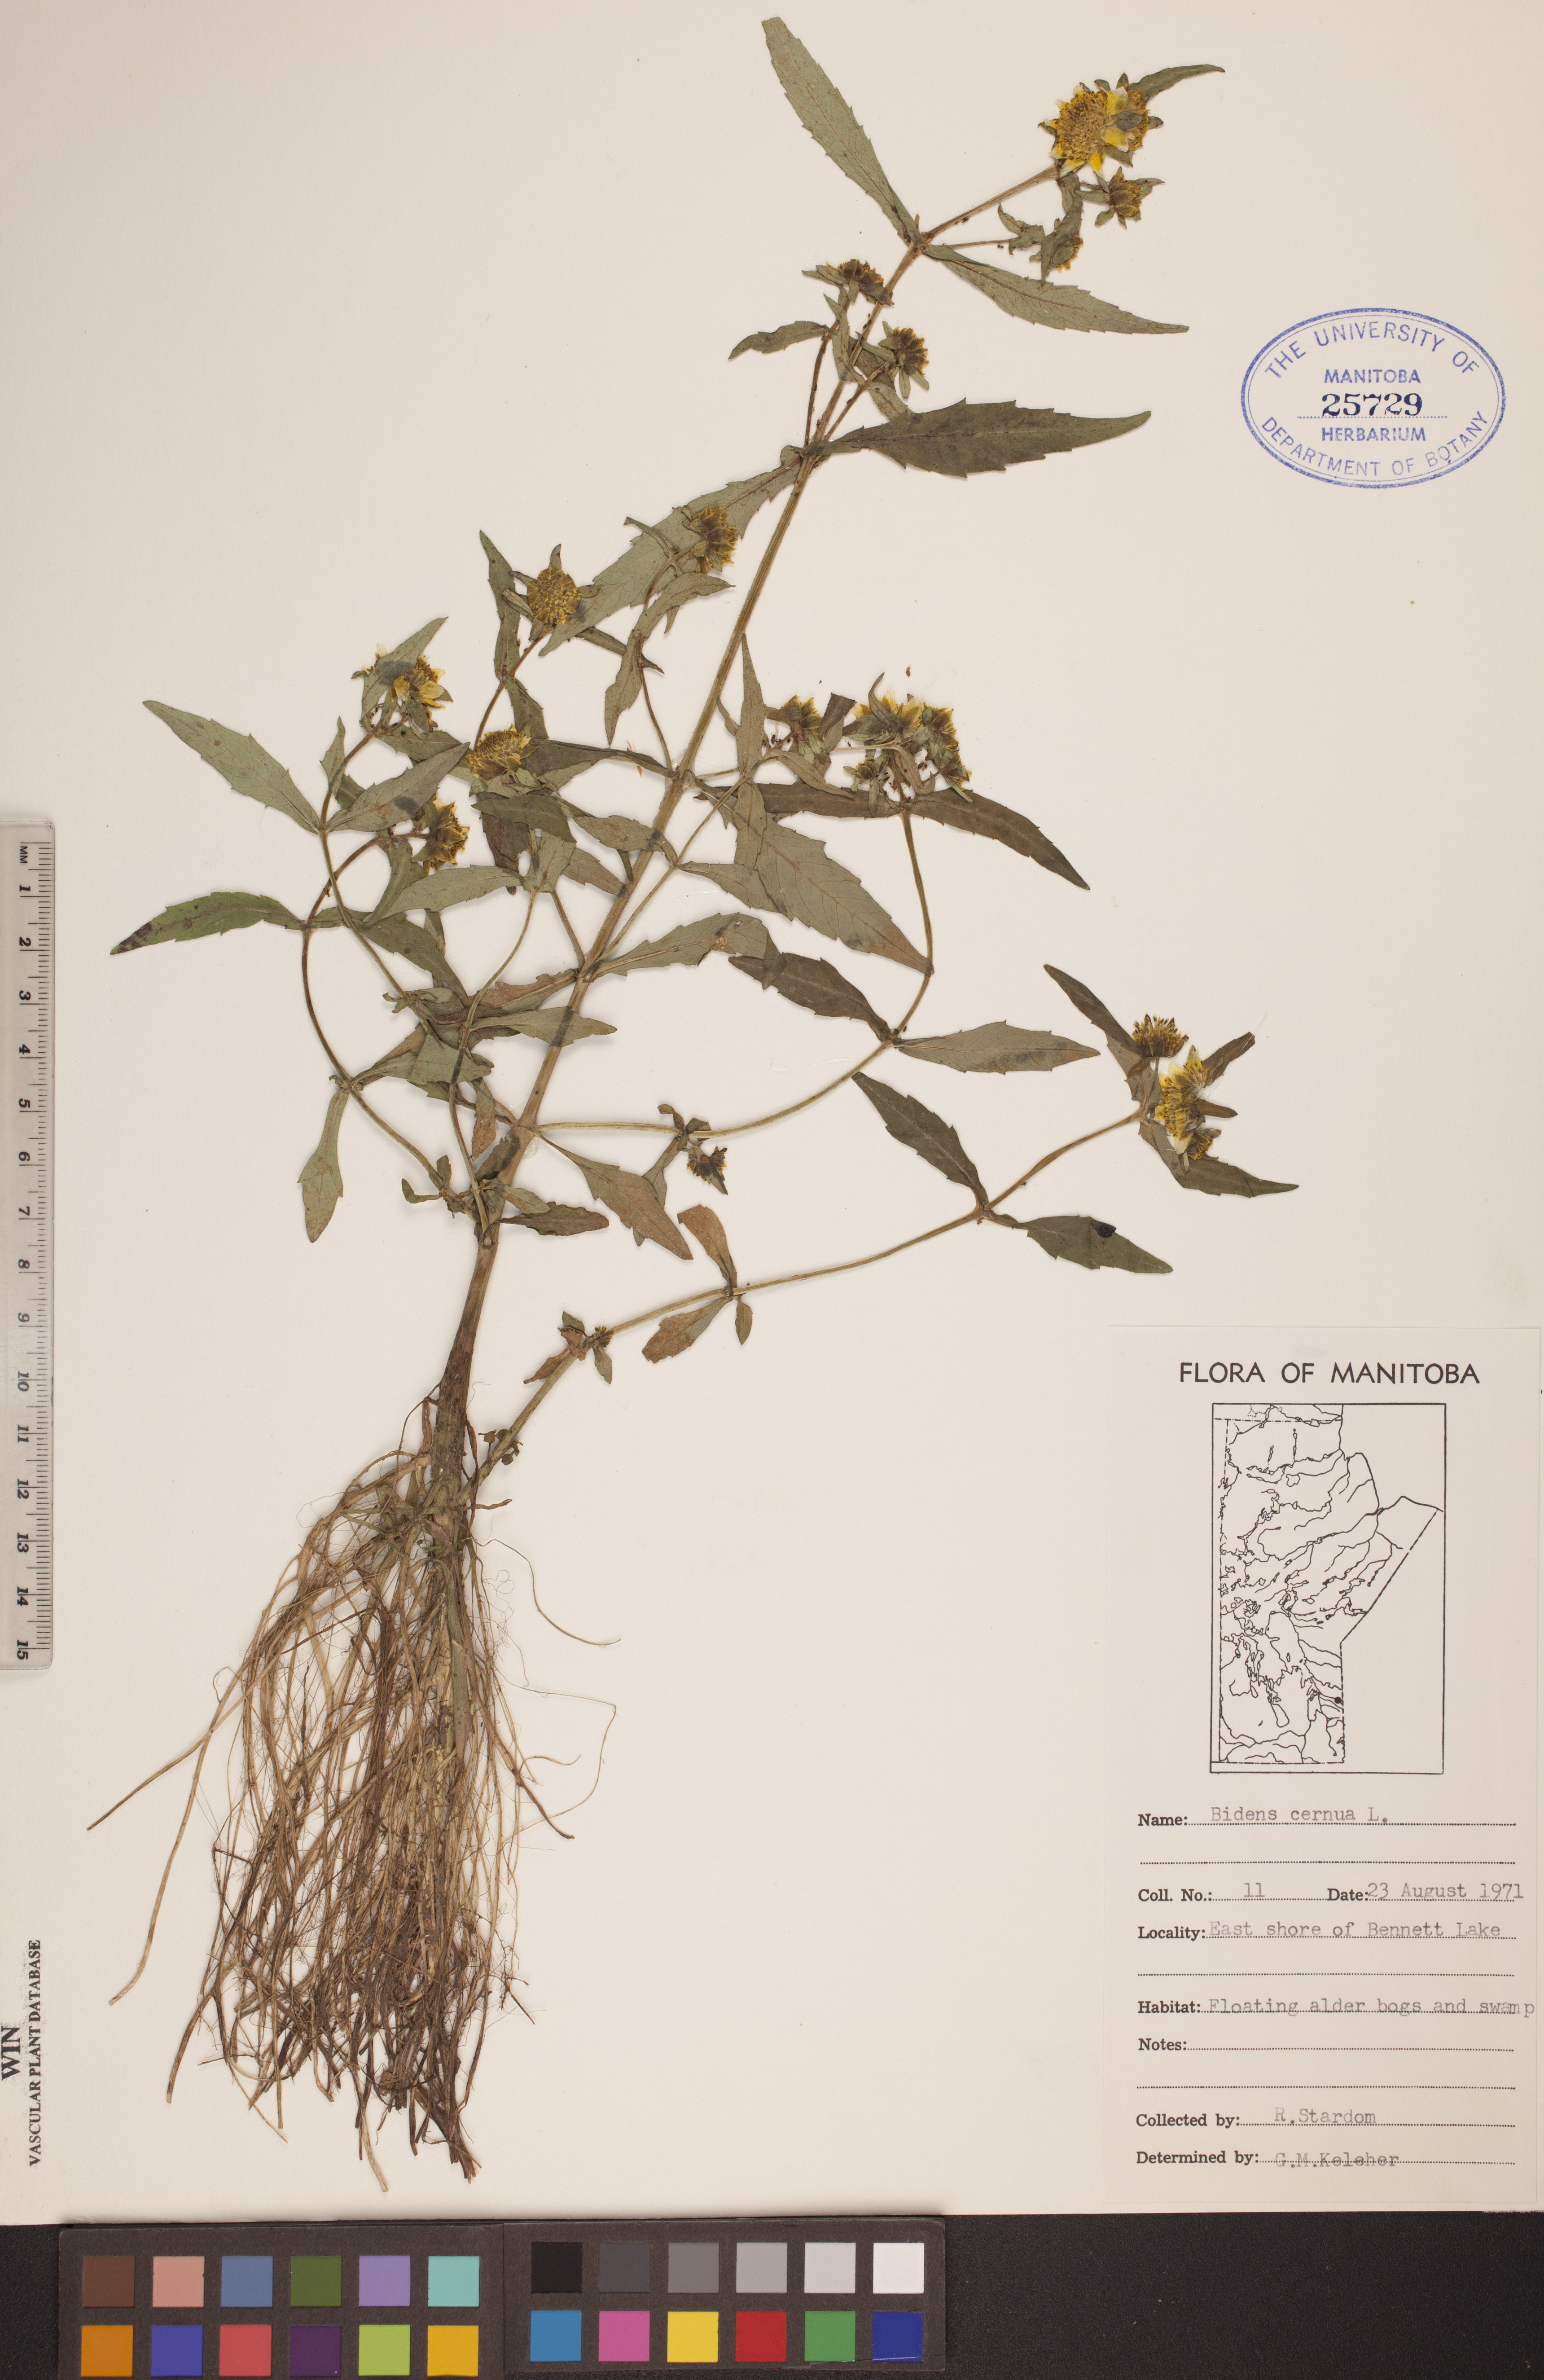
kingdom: Plantae
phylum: Tracheophyta
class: Magnoliopsida
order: Asterales
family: Asteraceae
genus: Bidens
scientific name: Bidens cernua
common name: Nodding bur-marigold
